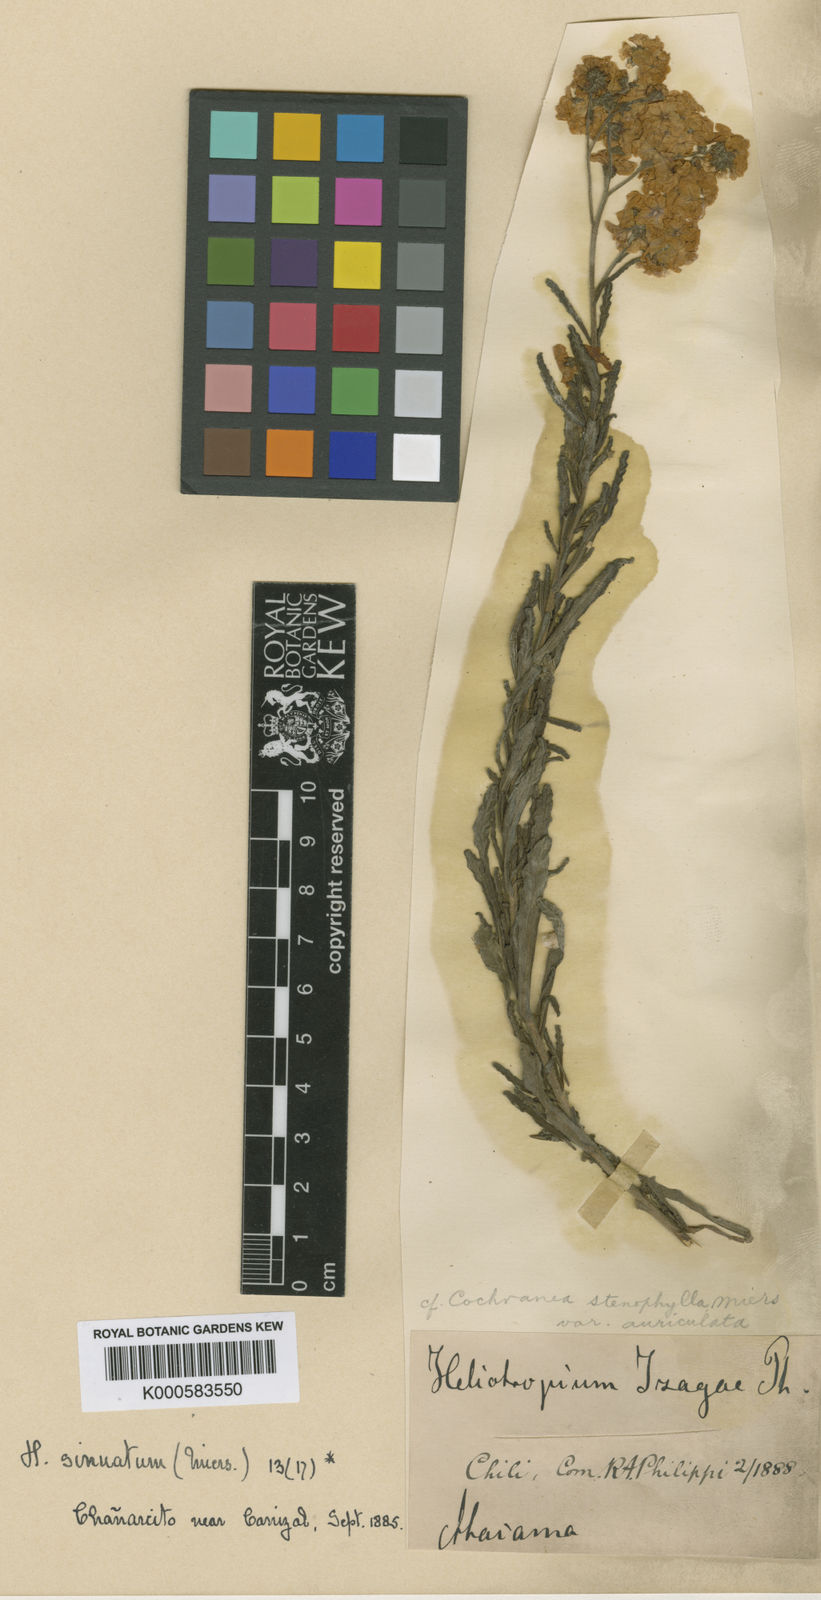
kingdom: Plantae
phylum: Tracheophyta
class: Magnoliopsida
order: Boraginales
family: Heliotropiaceae
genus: Heliotropium
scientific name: Heliotropium sinuatum
